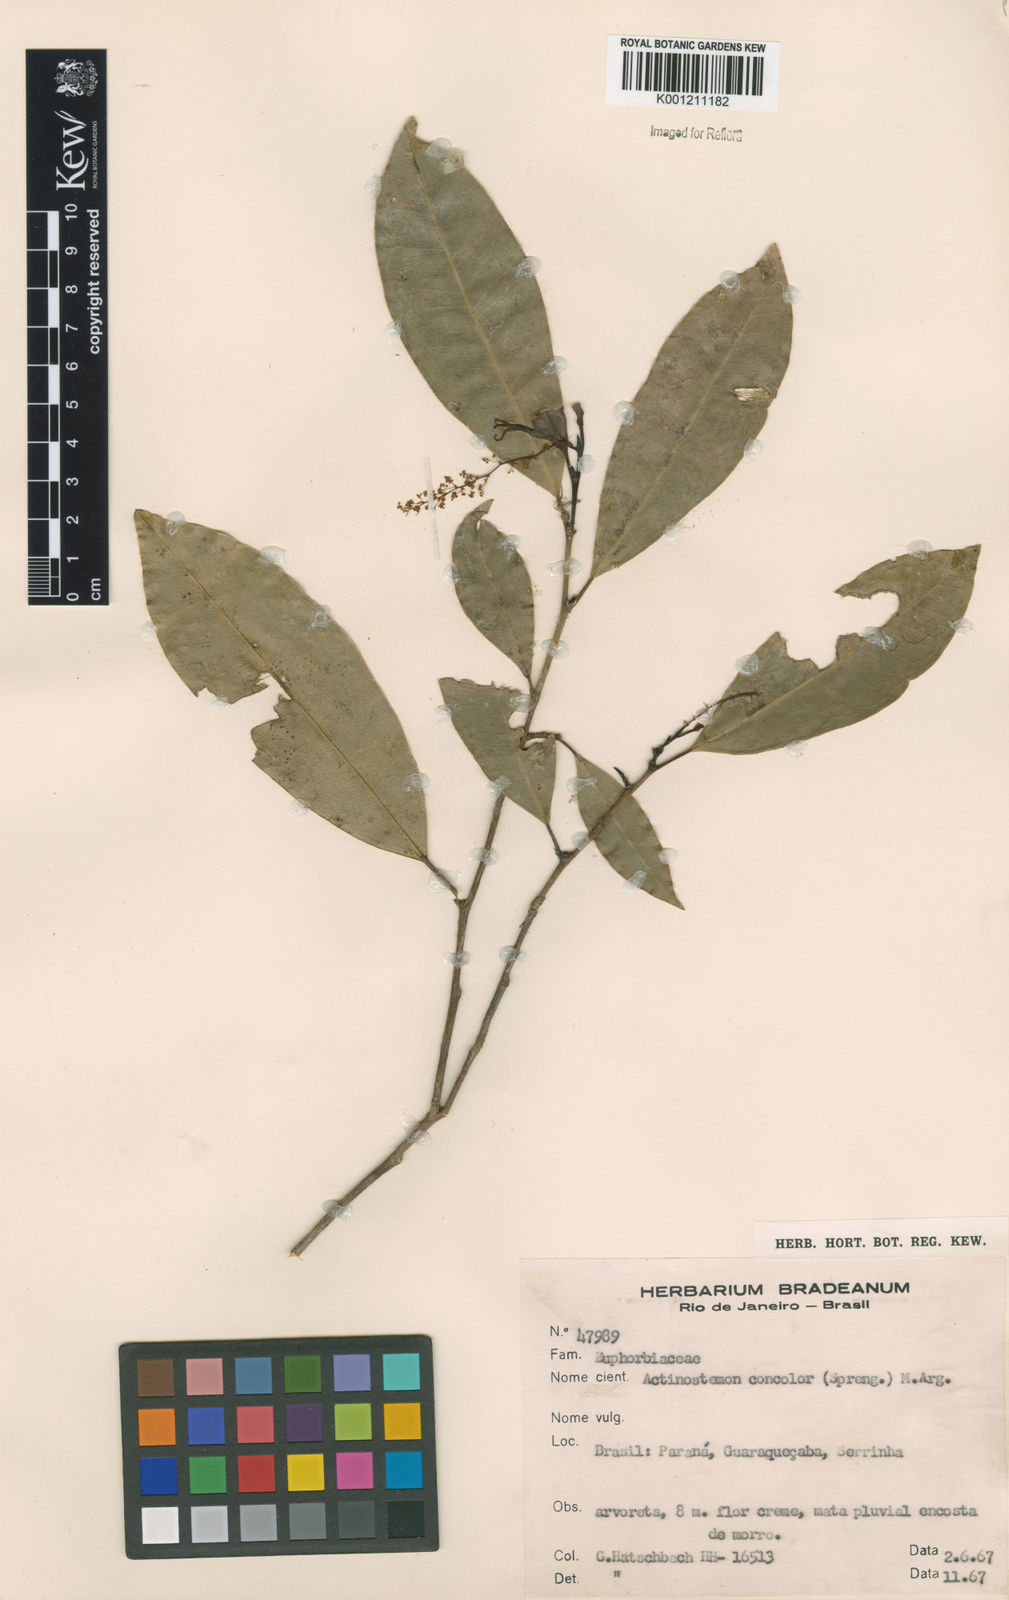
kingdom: Plantae
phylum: Tracheophyta
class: Magnoliopsida
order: Malpighiales
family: Euphorbiaceae
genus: Actinostemon
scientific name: Actinostemon
